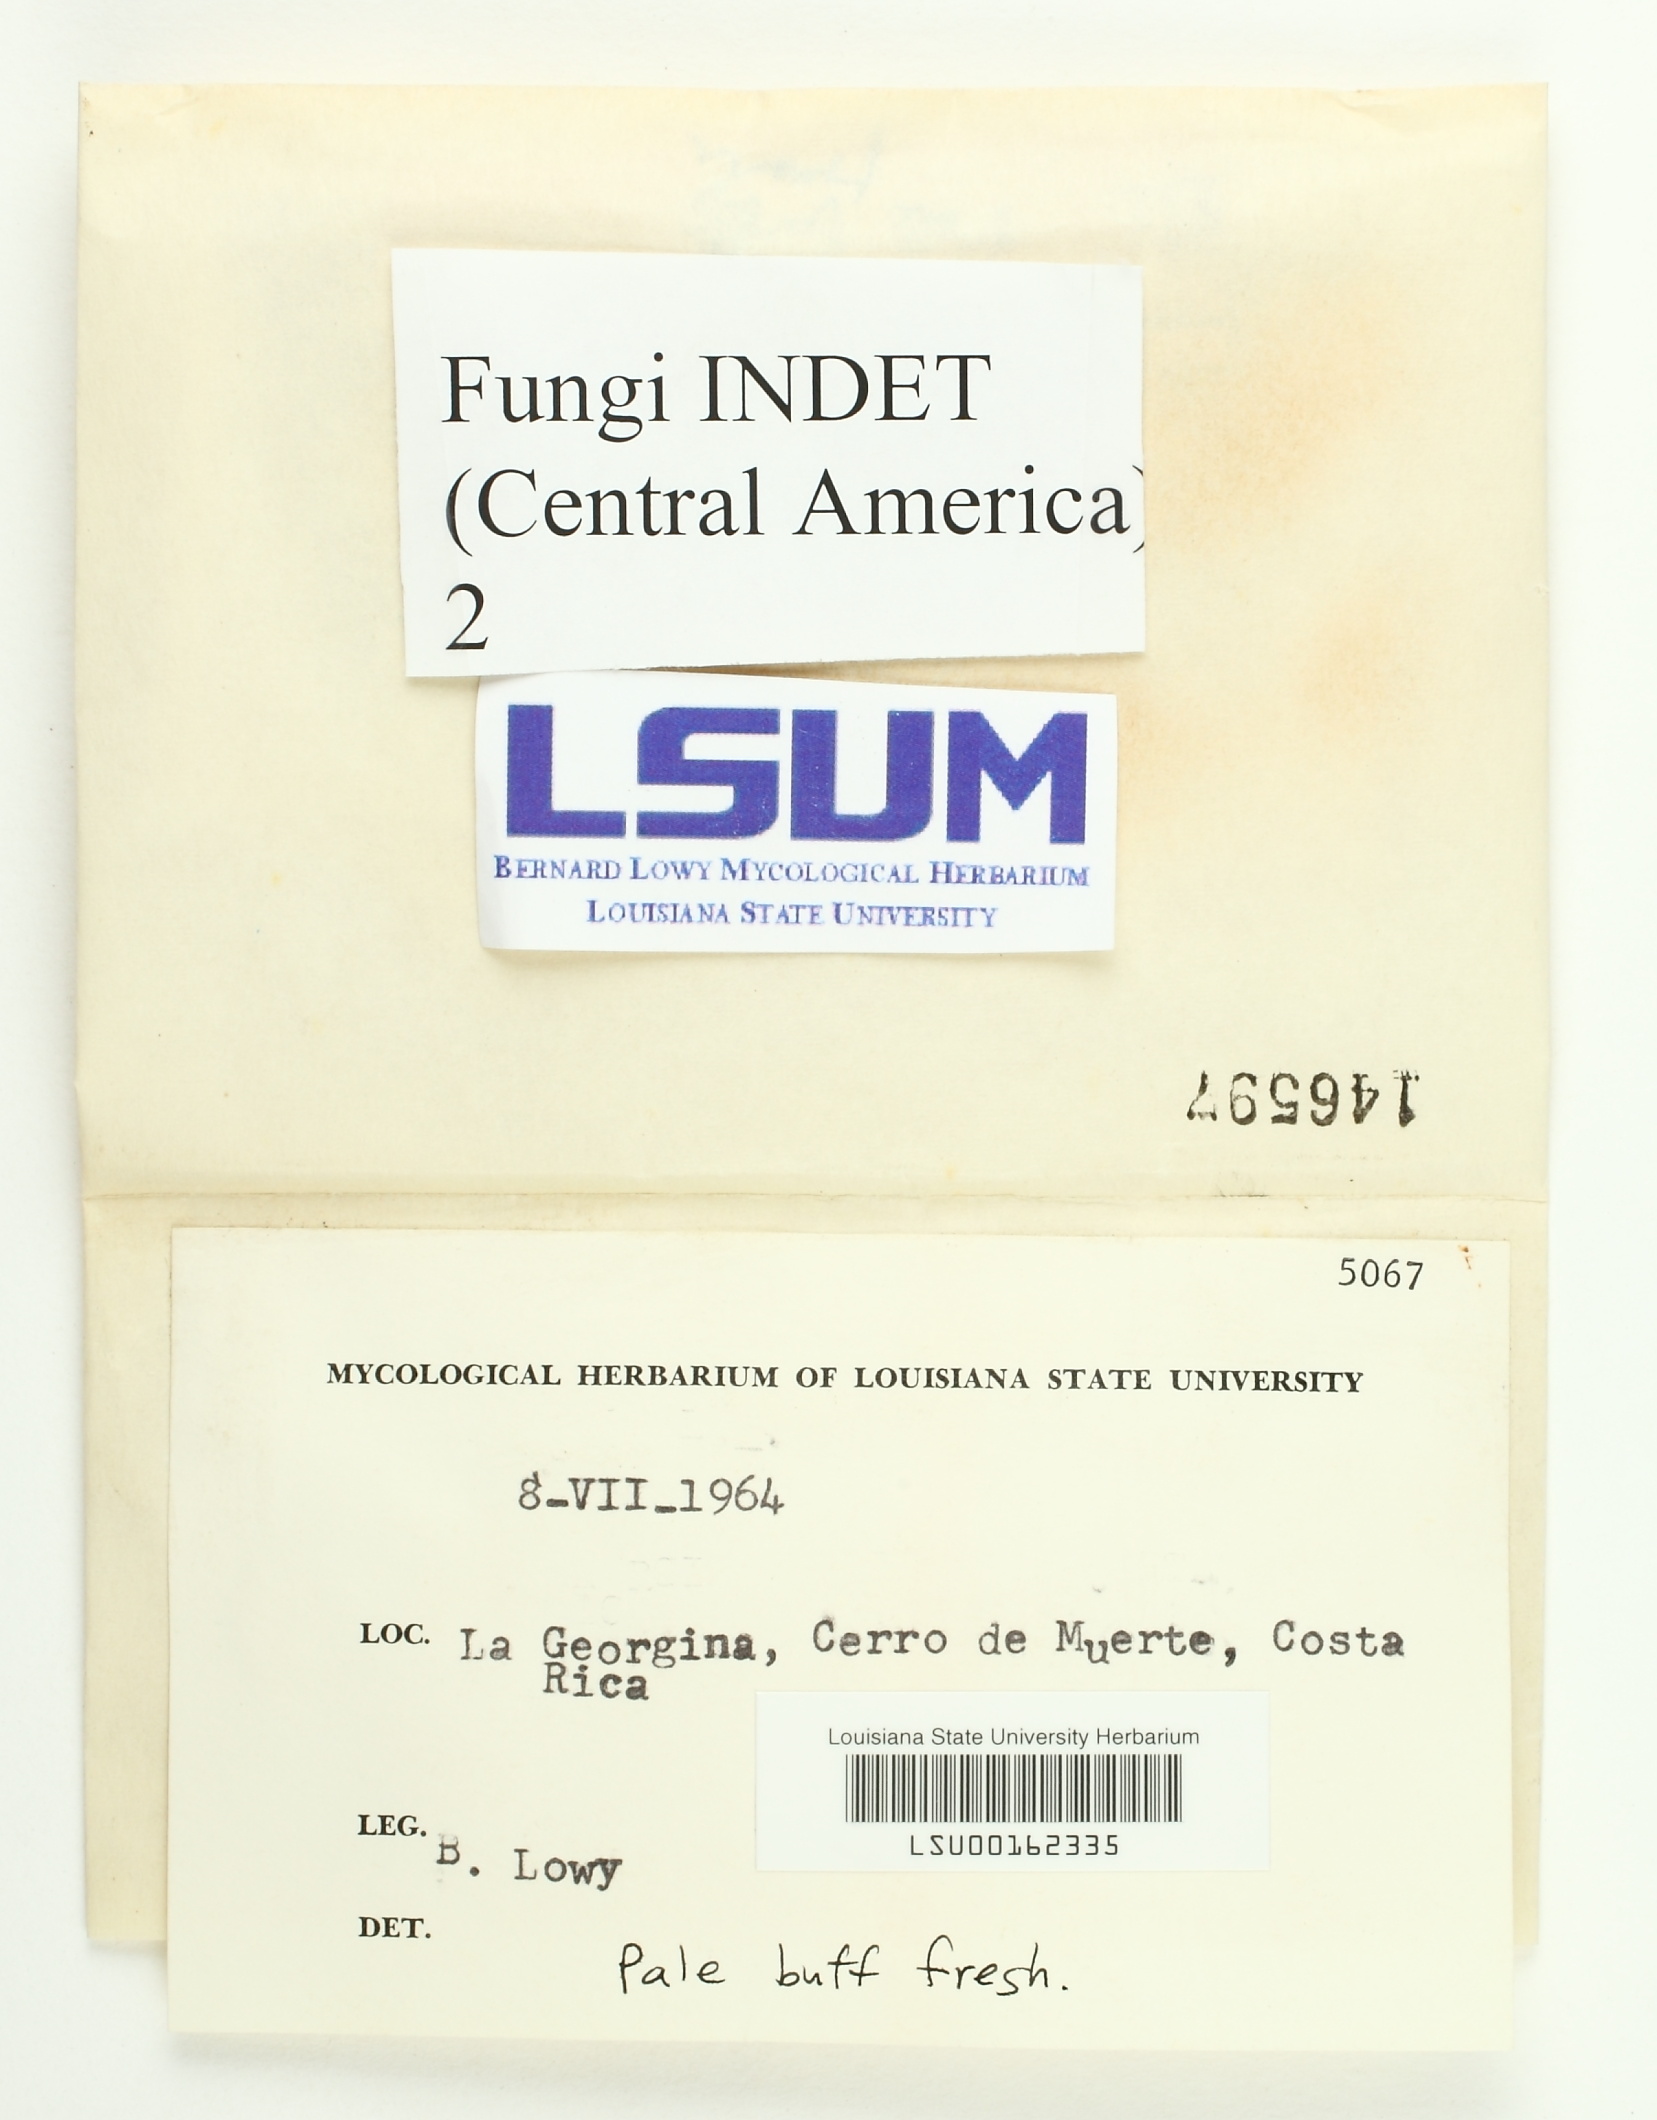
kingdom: Fungi
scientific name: Fungi
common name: Fungi
